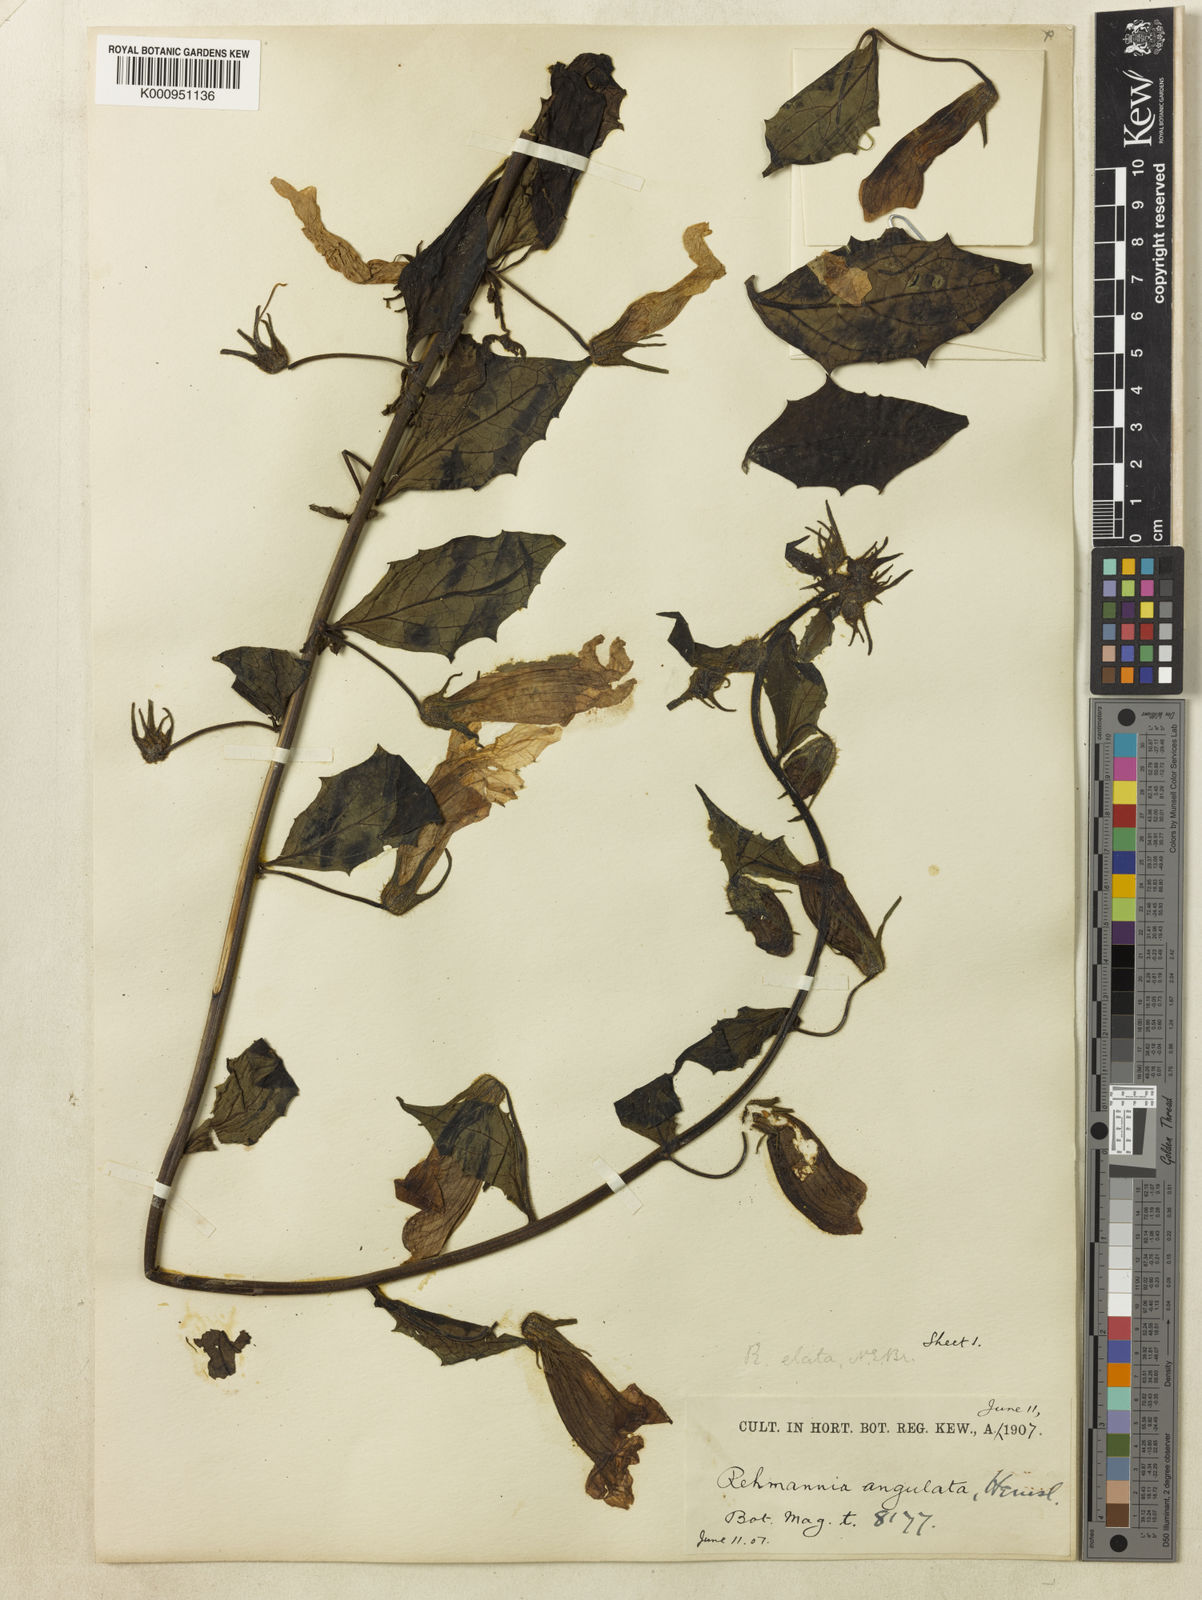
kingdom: Plantae
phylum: Tracheophyta
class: Magnoliopsida
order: Lamiales
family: Rehmanniaceae
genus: Rehmannia
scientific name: Rehmannia
